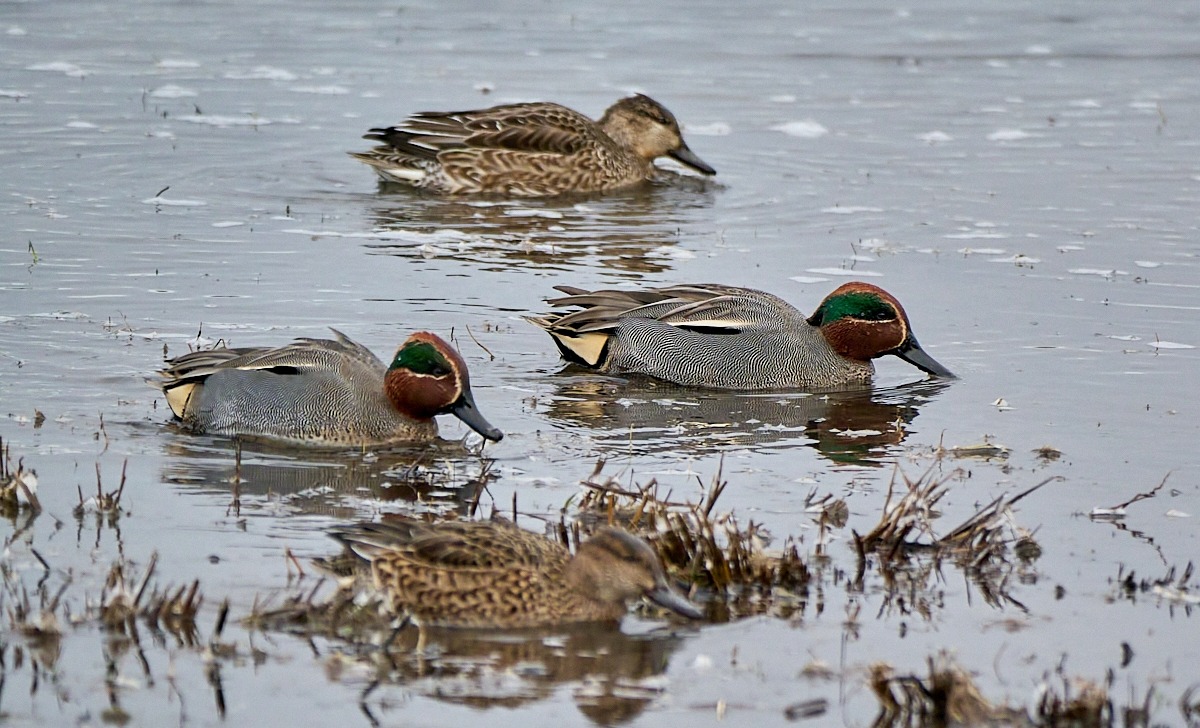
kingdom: Animalia
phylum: Chordata
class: Aves
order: Anseriformes
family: Anatidae
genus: Anas
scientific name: Anas crecca
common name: Krikand
